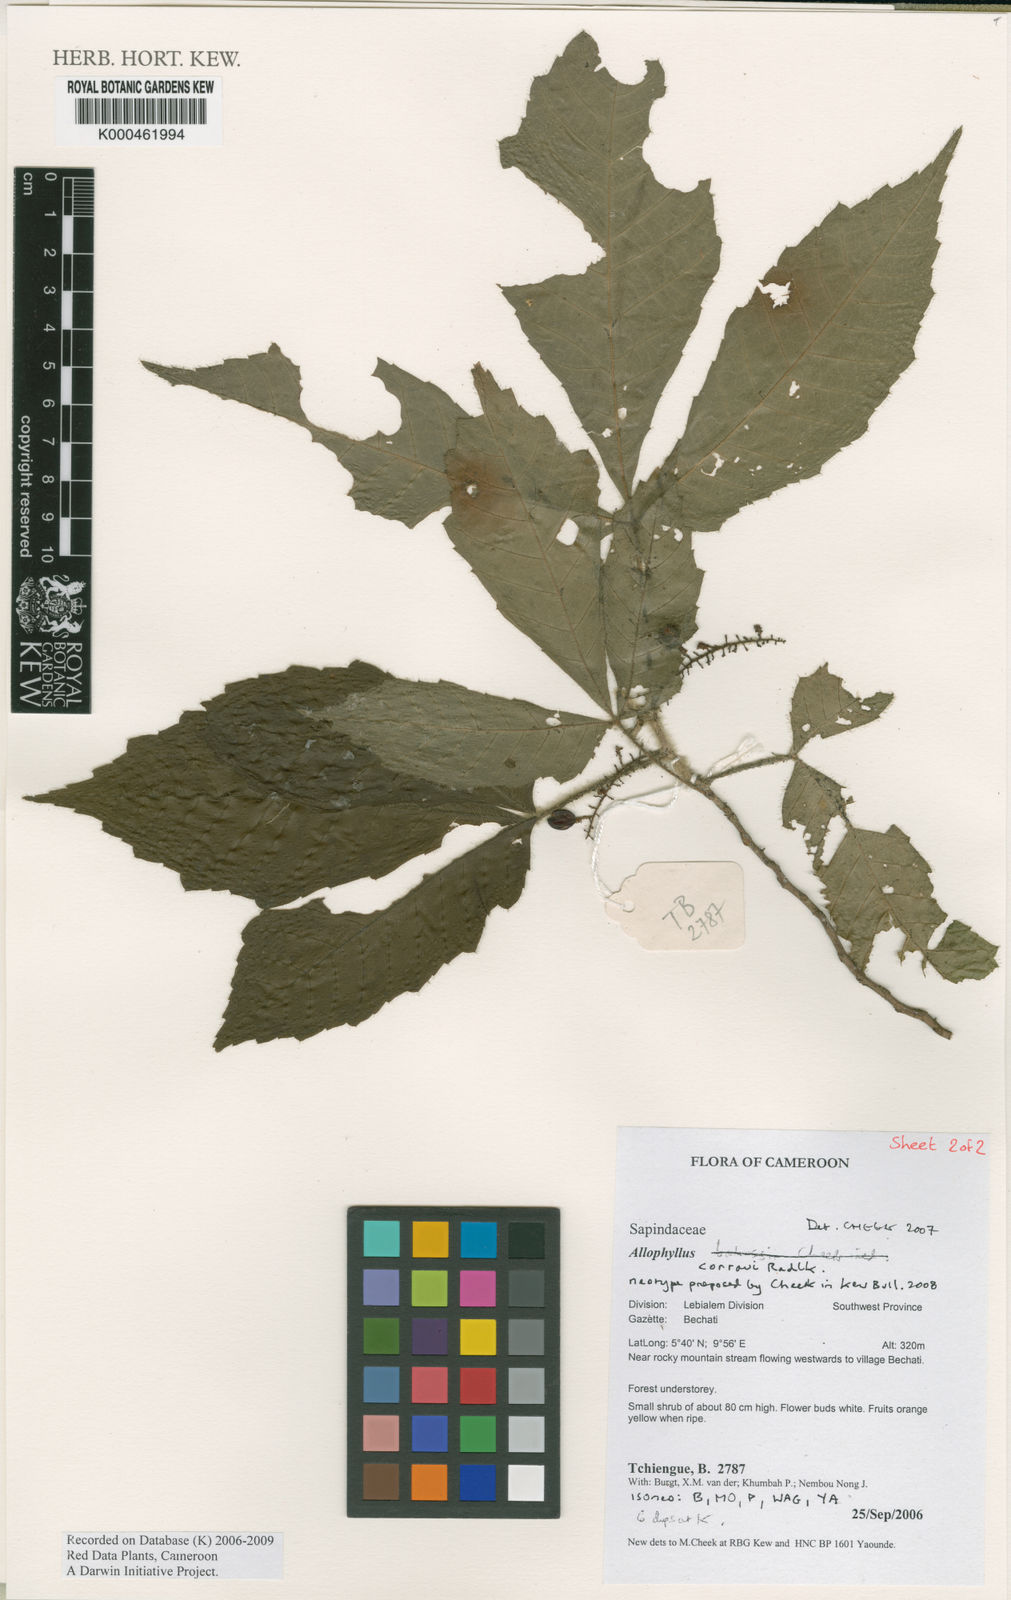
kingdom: Plantae
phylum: Tracheophyta
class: Magnoliopsida
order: Sapindales
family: Sapindaceae
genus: Allophylus
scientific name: Allophylus conraui
